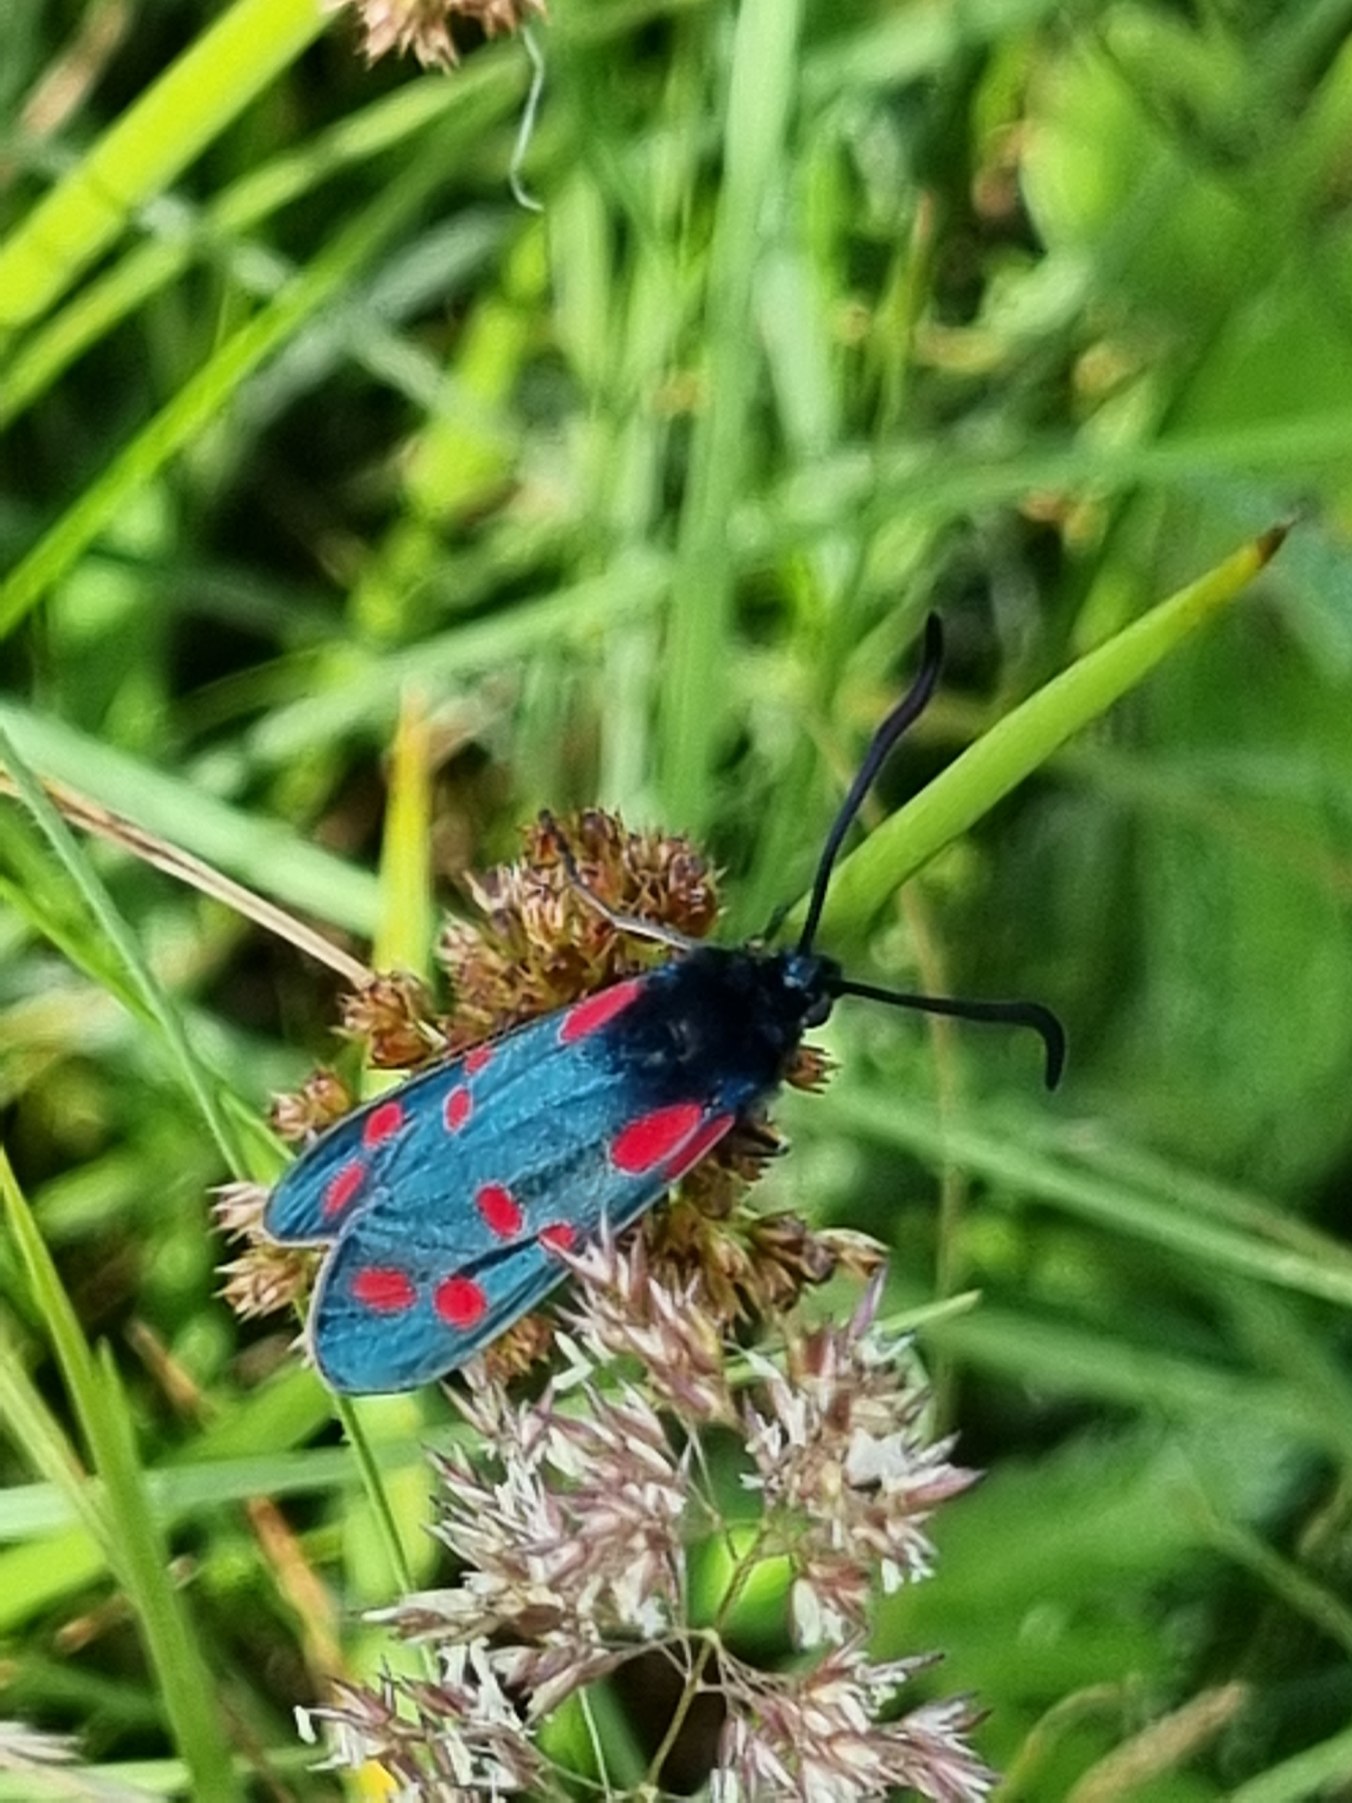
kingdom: Animalia
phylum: Arthropoda
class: Insecta
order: Lepidoptera
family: Zygaenidae
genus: Zygaena
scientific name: Zygaena filipendulae
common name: Seksplettet køllesværmer
